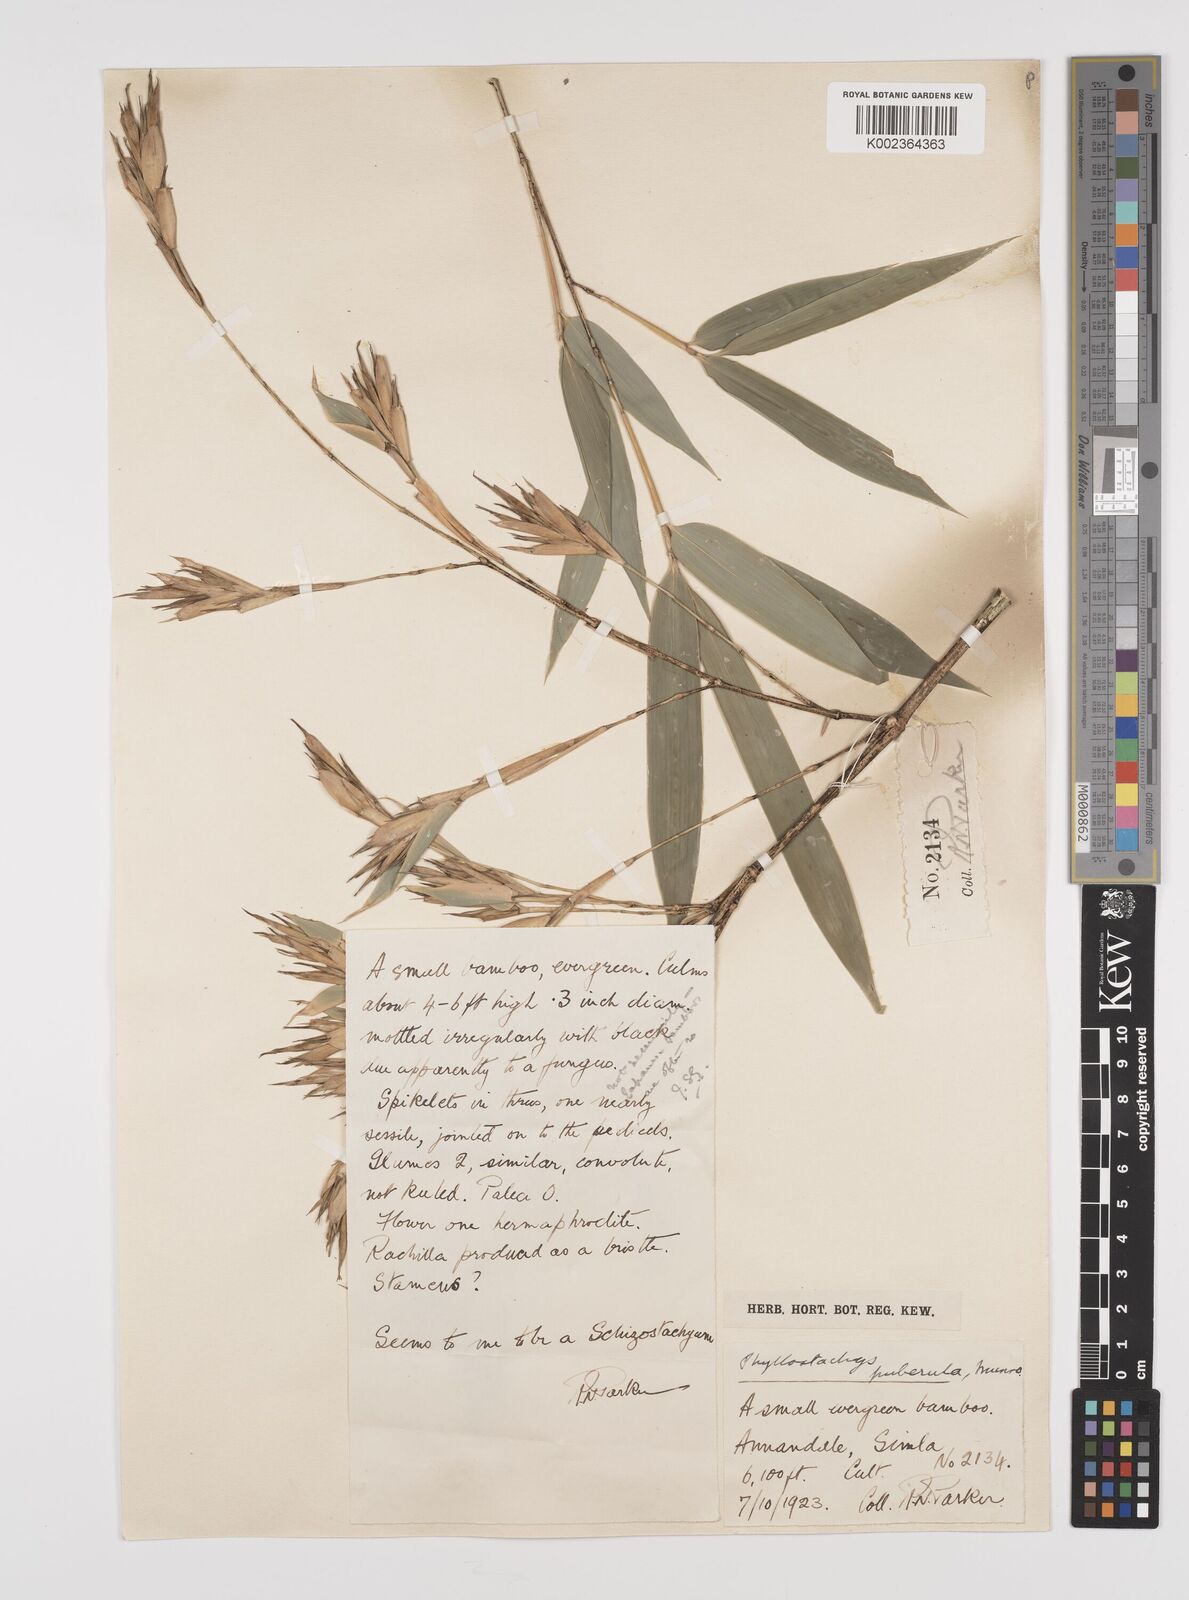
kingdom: Plantae
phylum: Tracheophyta
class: Liliopsida
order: Poales
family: Poaceae
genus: Phyllostachys
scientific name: Phyllostachys nigra
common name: Black bamboo
